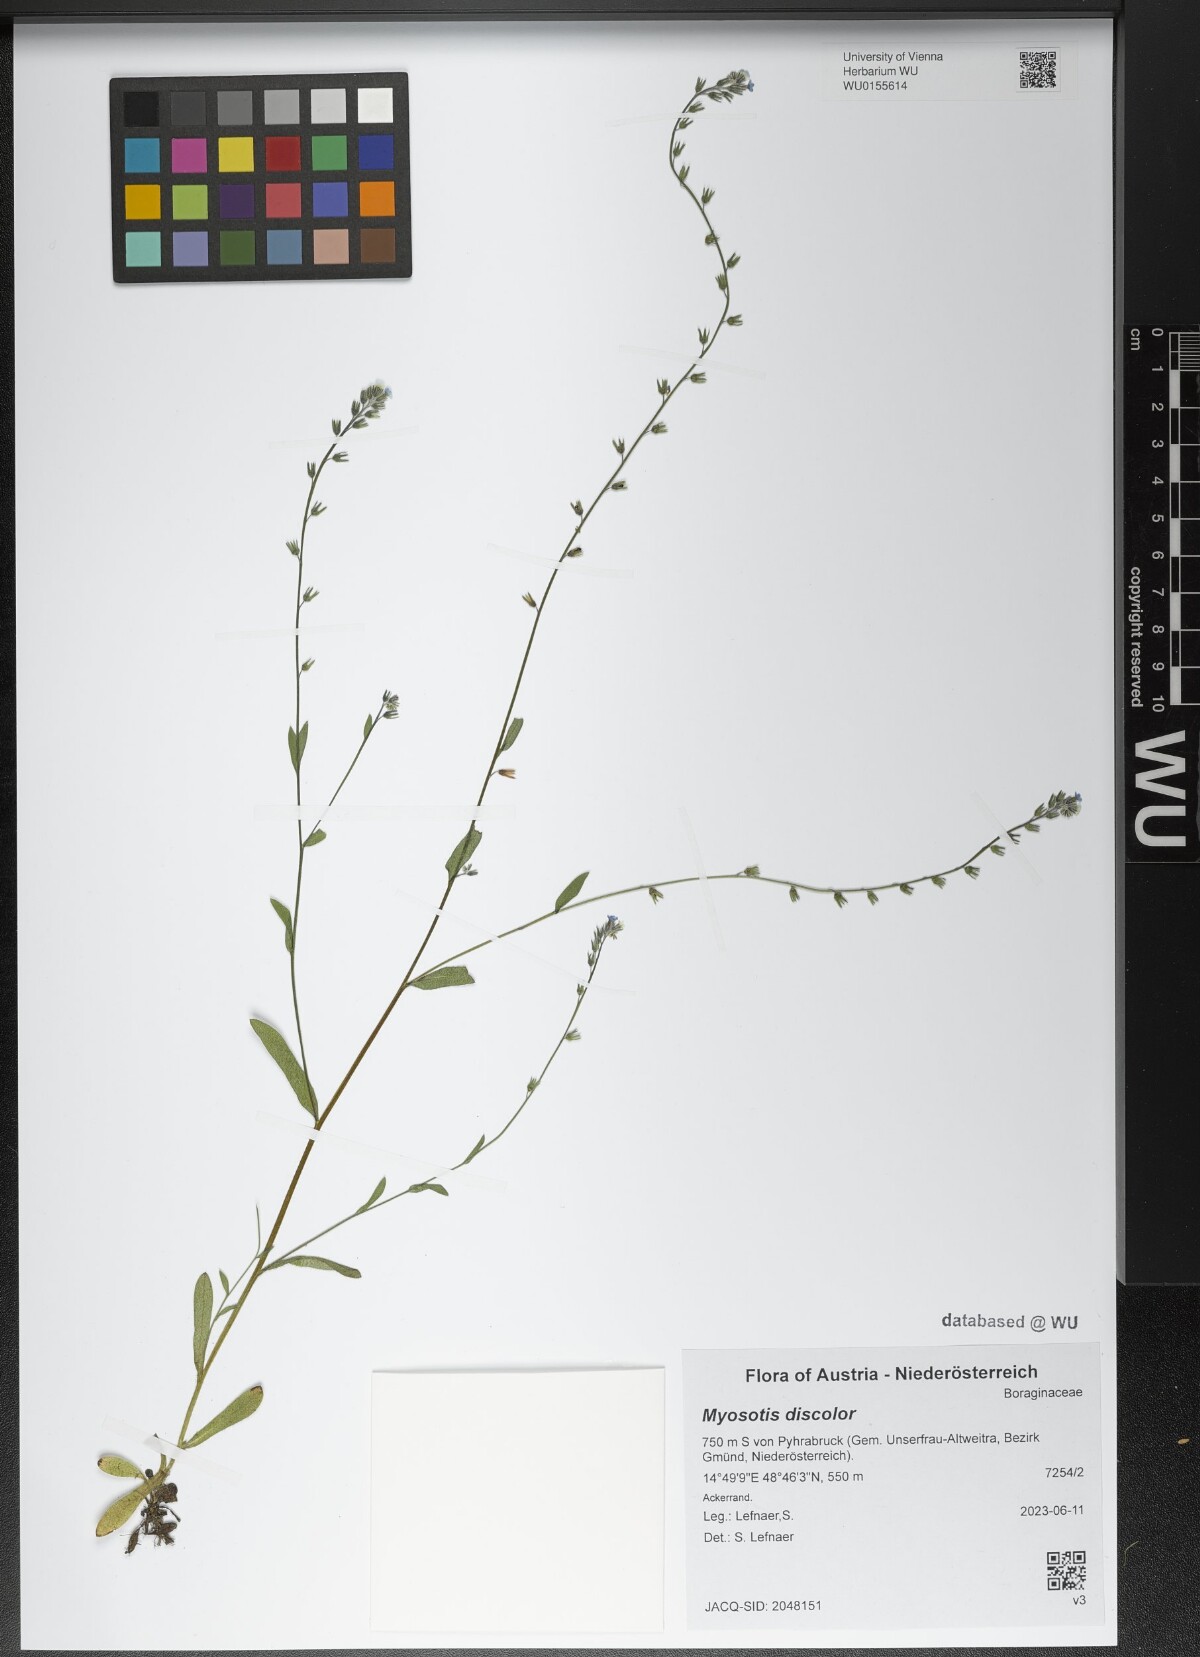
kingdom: Plantae
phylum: Tracheophyta
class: Magnoliopsida
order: Boraginales
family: Boraginaceae
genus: Myosotis
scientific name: Myosotis discolor
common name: Changing forget-me-not
